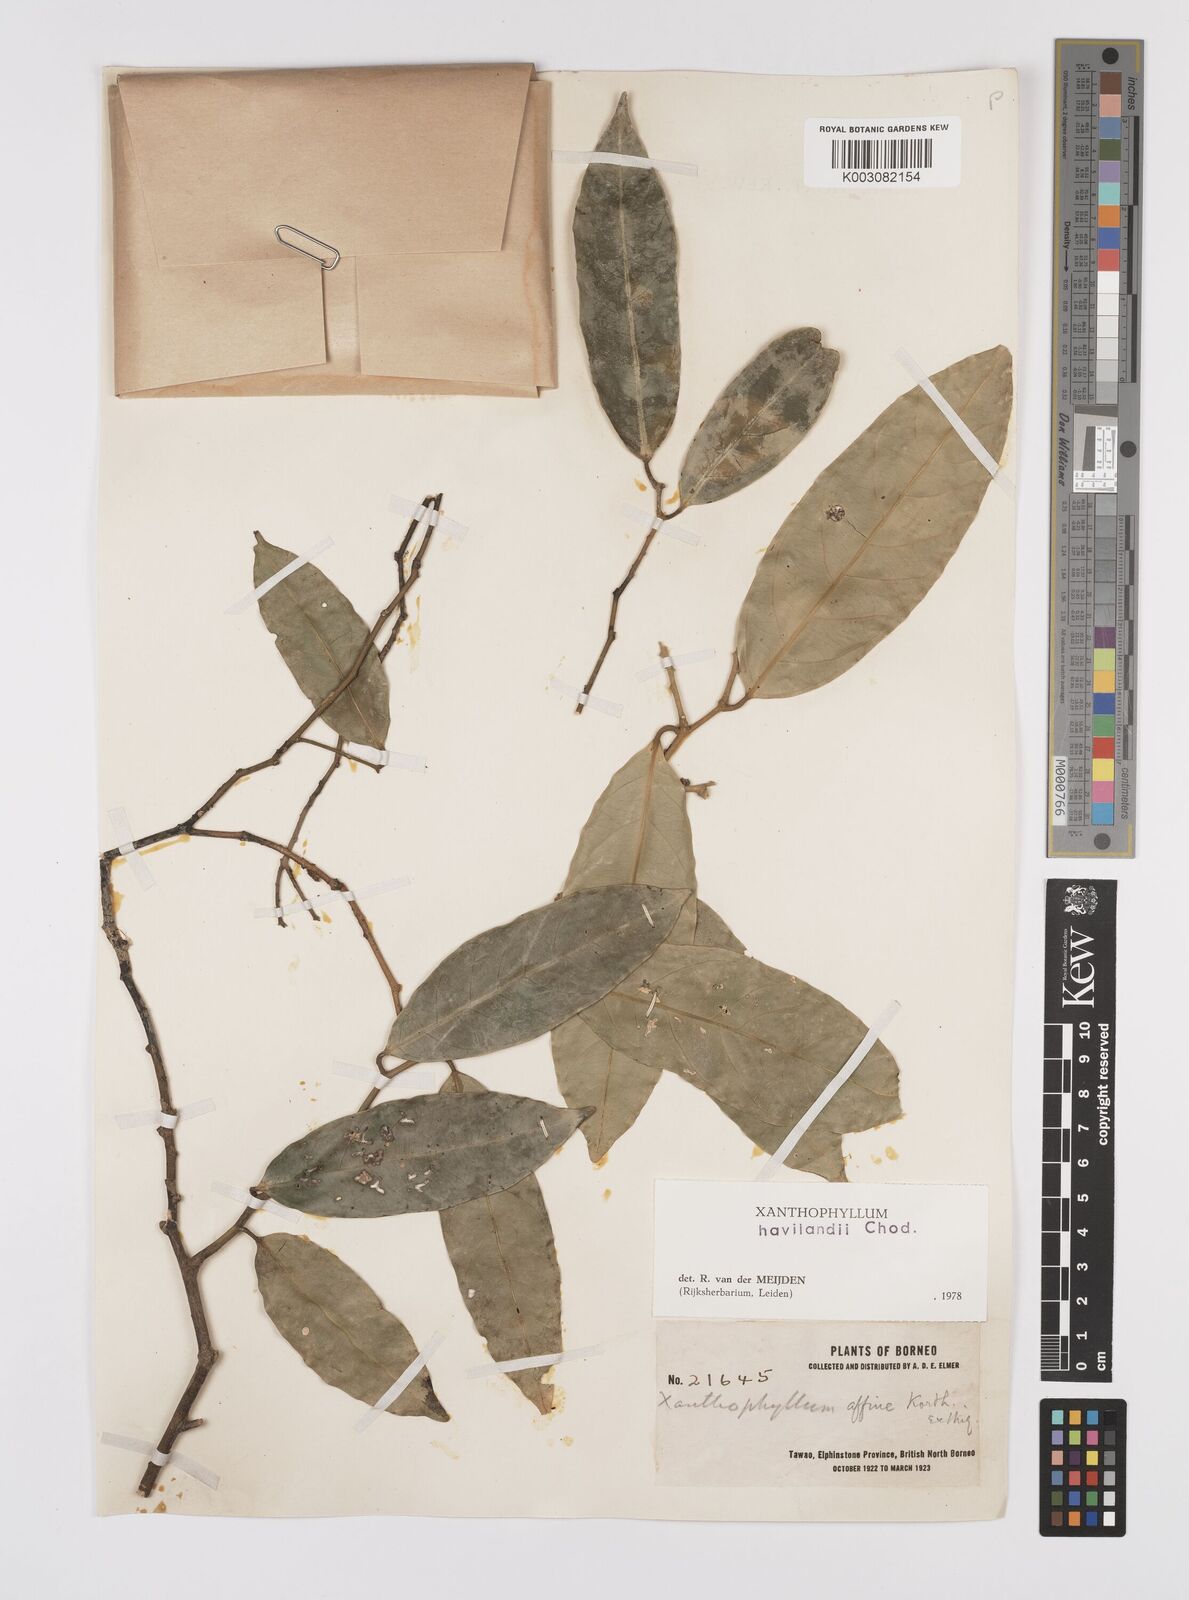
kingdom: Plantae
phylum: Tracheophyta
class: Magnoliopsida
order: Fabales
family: Polygalaceae
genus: Xanthophyllum
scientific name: Xanthophyllum havilandii
